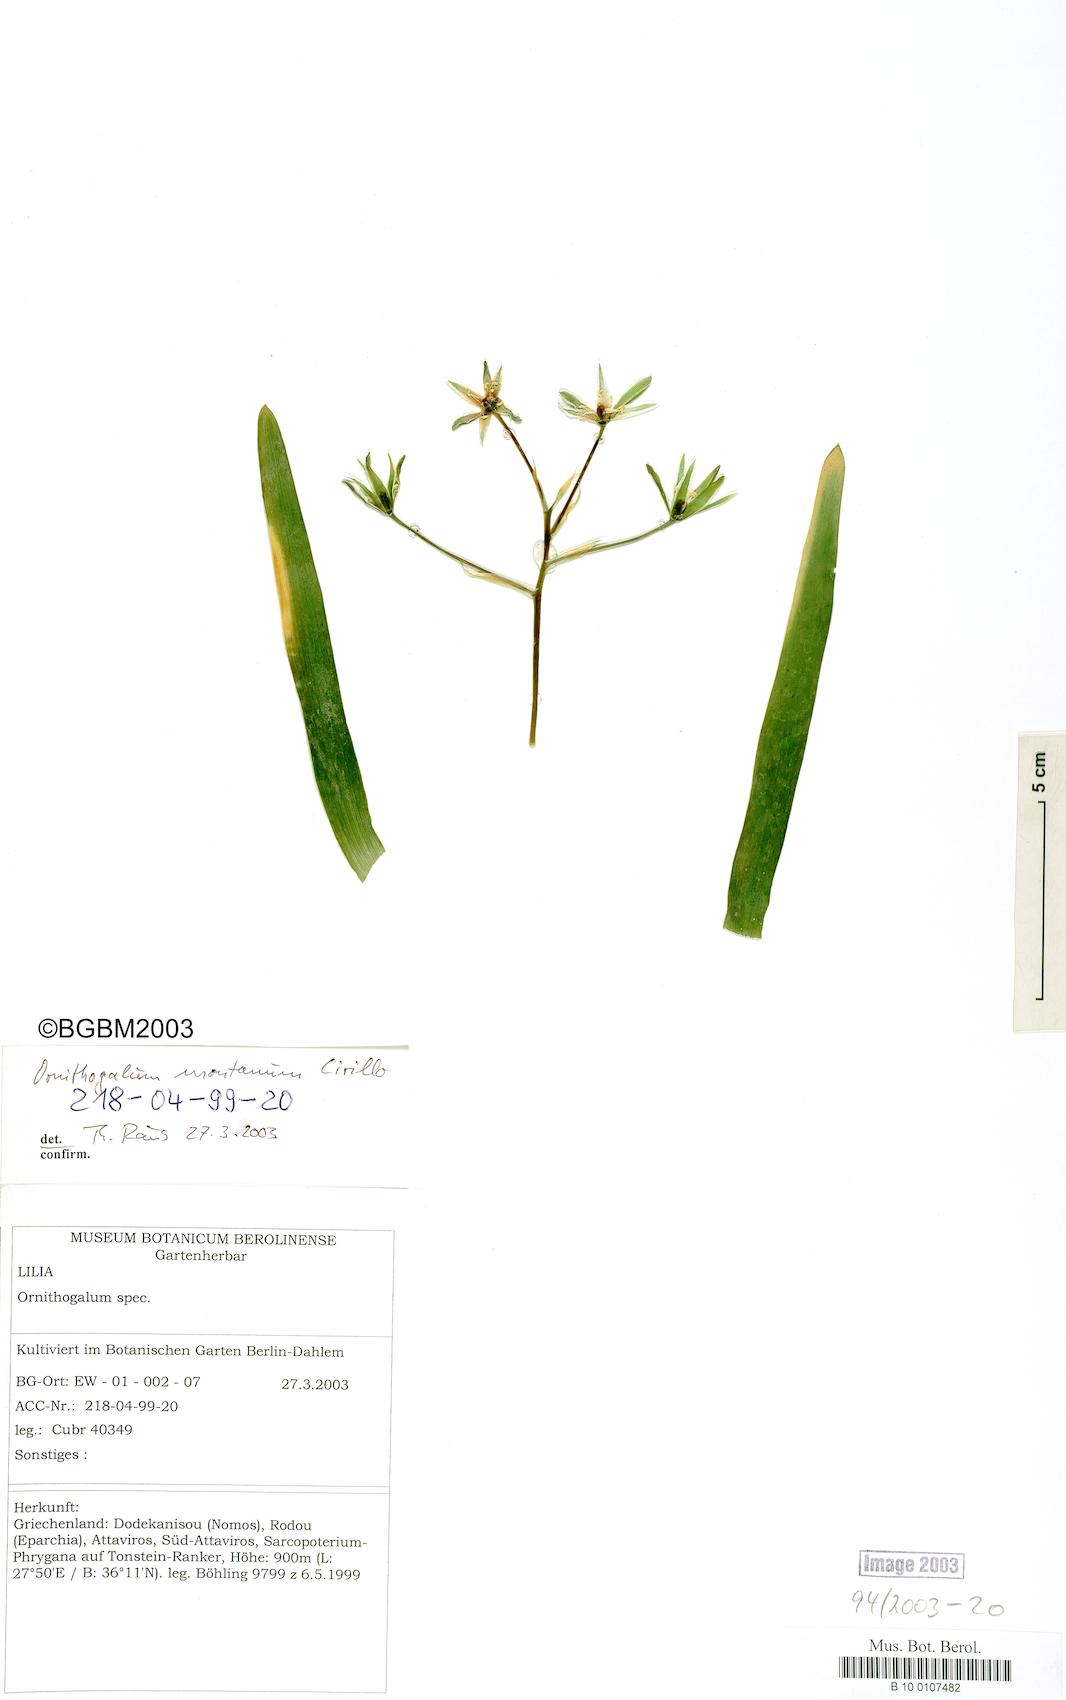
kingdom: Plantae
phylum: Tracheophyta
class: Liliopsida
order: Asparagales
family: Asparagaceae
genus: Ornithogalum
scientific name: Ornithogalum montanum
